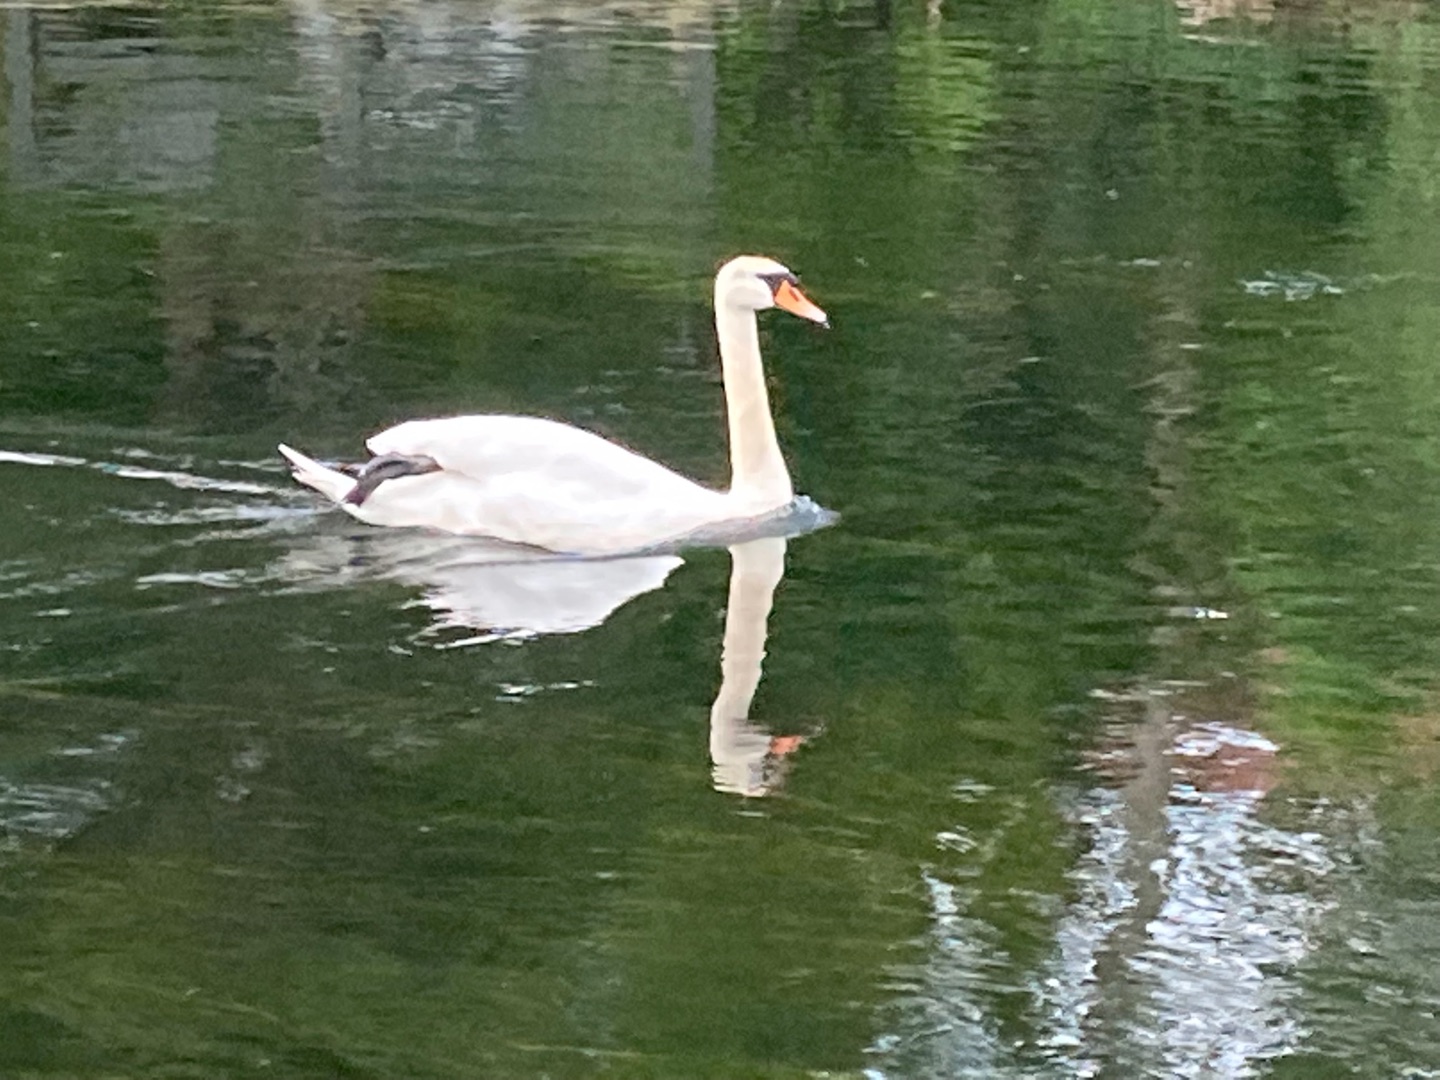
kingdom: Animalia
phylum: Chordata
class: Aves
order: Anseriformes
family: Anatidae
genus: Cygnus
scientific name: Cygnus olor
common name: Knopsvane
